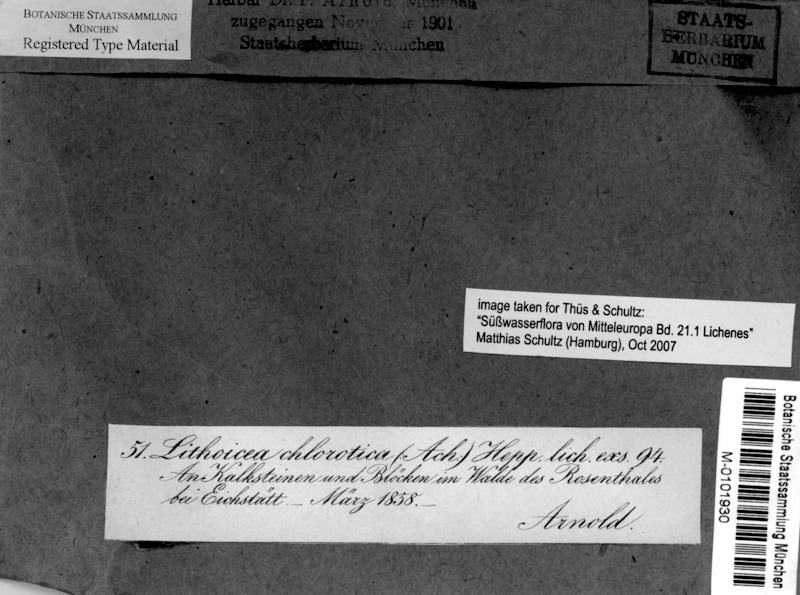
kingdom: Fungi
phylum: Ascomycota
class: Eurotiomycetes
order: Verrucariales
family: Verrucariaceae
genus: Verrucaria
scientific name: Verrucaria aethiobola
